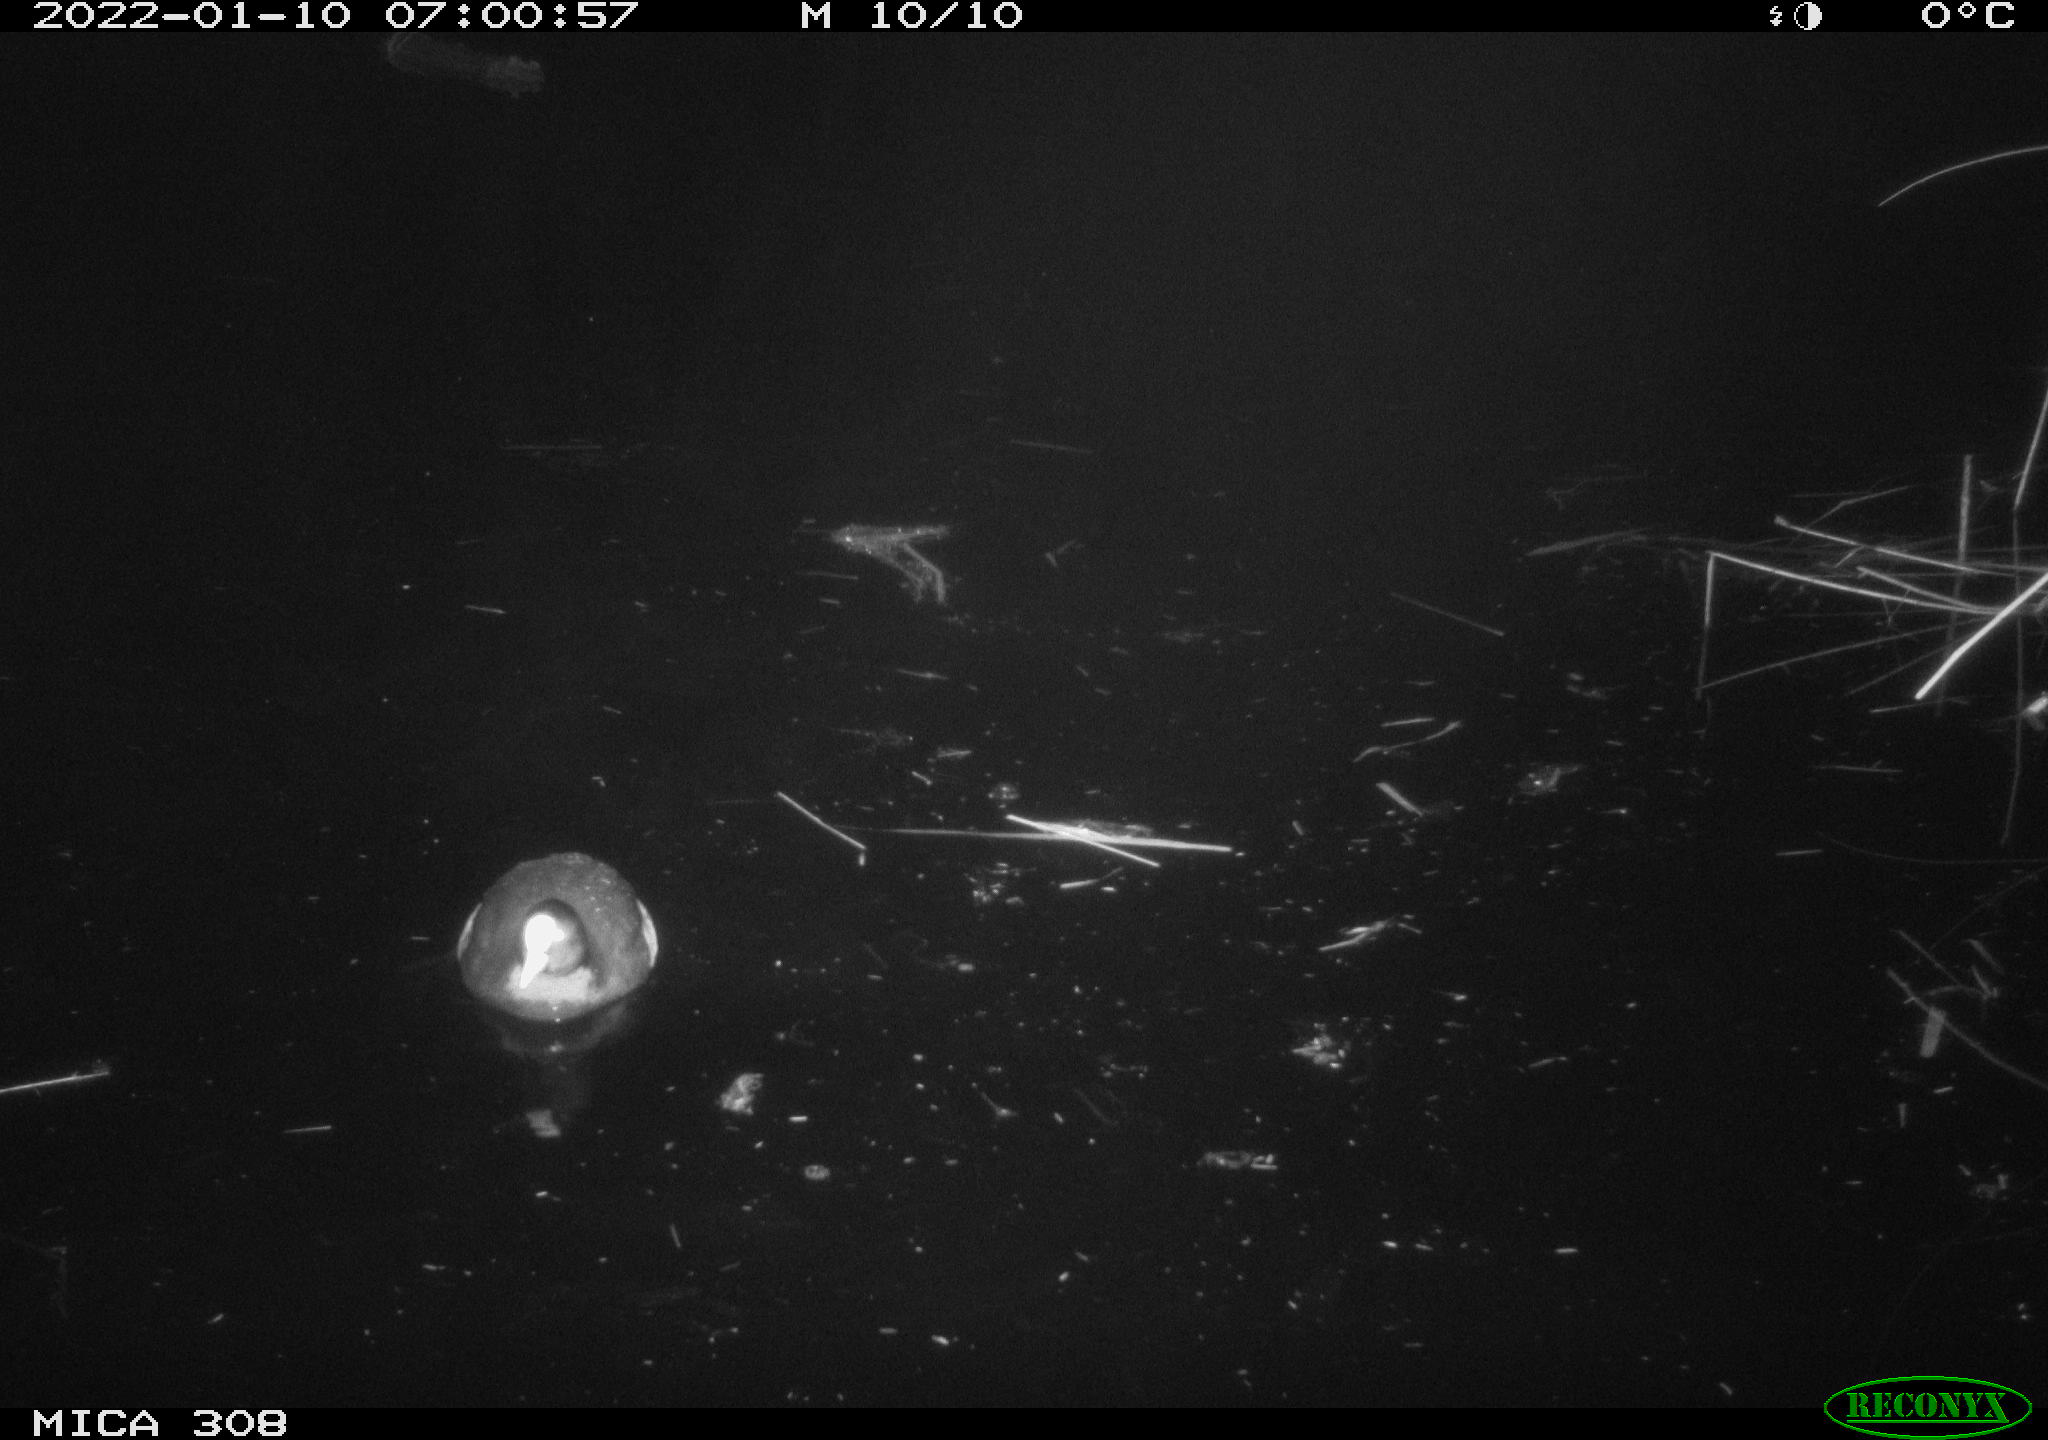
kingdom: Animalia
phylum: Chordata
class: Aves
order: Gruiformes
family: Rallidae
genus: Fulica
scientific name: Fulica atra
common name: Eurasian coot
